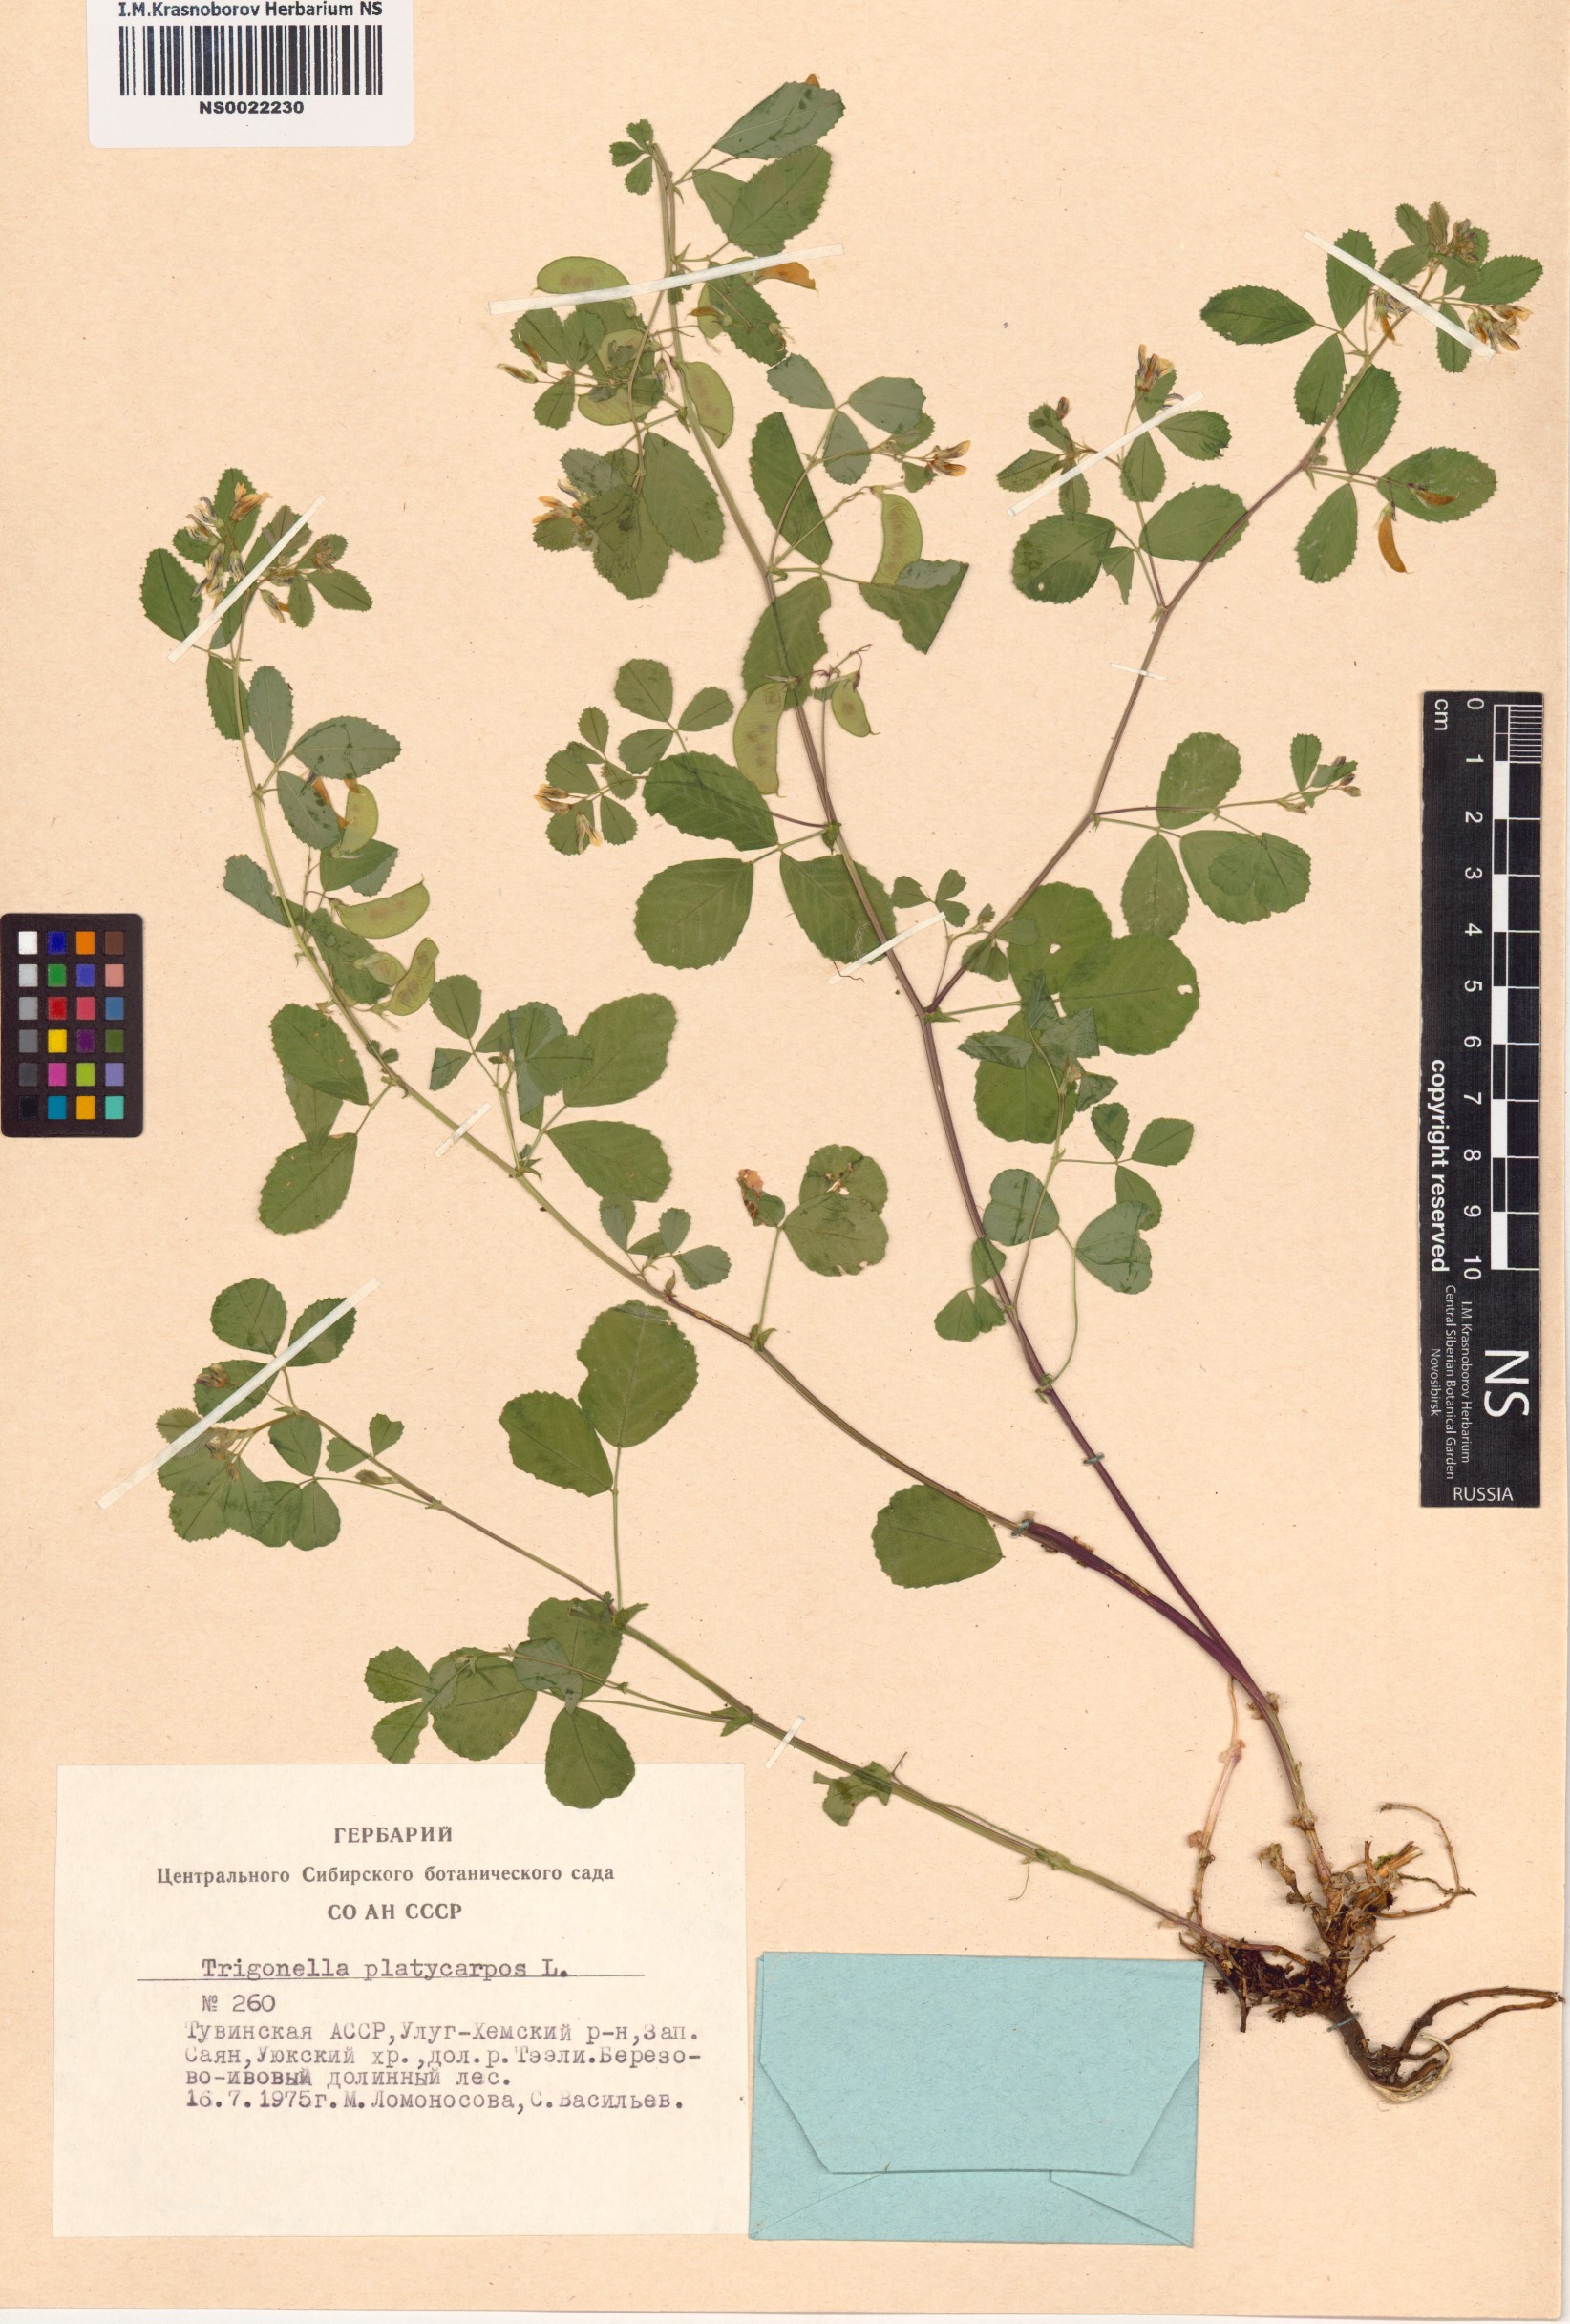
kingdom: Plantae
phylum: Tracheophyta
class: Magnoliopsida
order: Fabales
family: Fabaceae
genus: Medicago
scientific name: Medicago platycarpos
